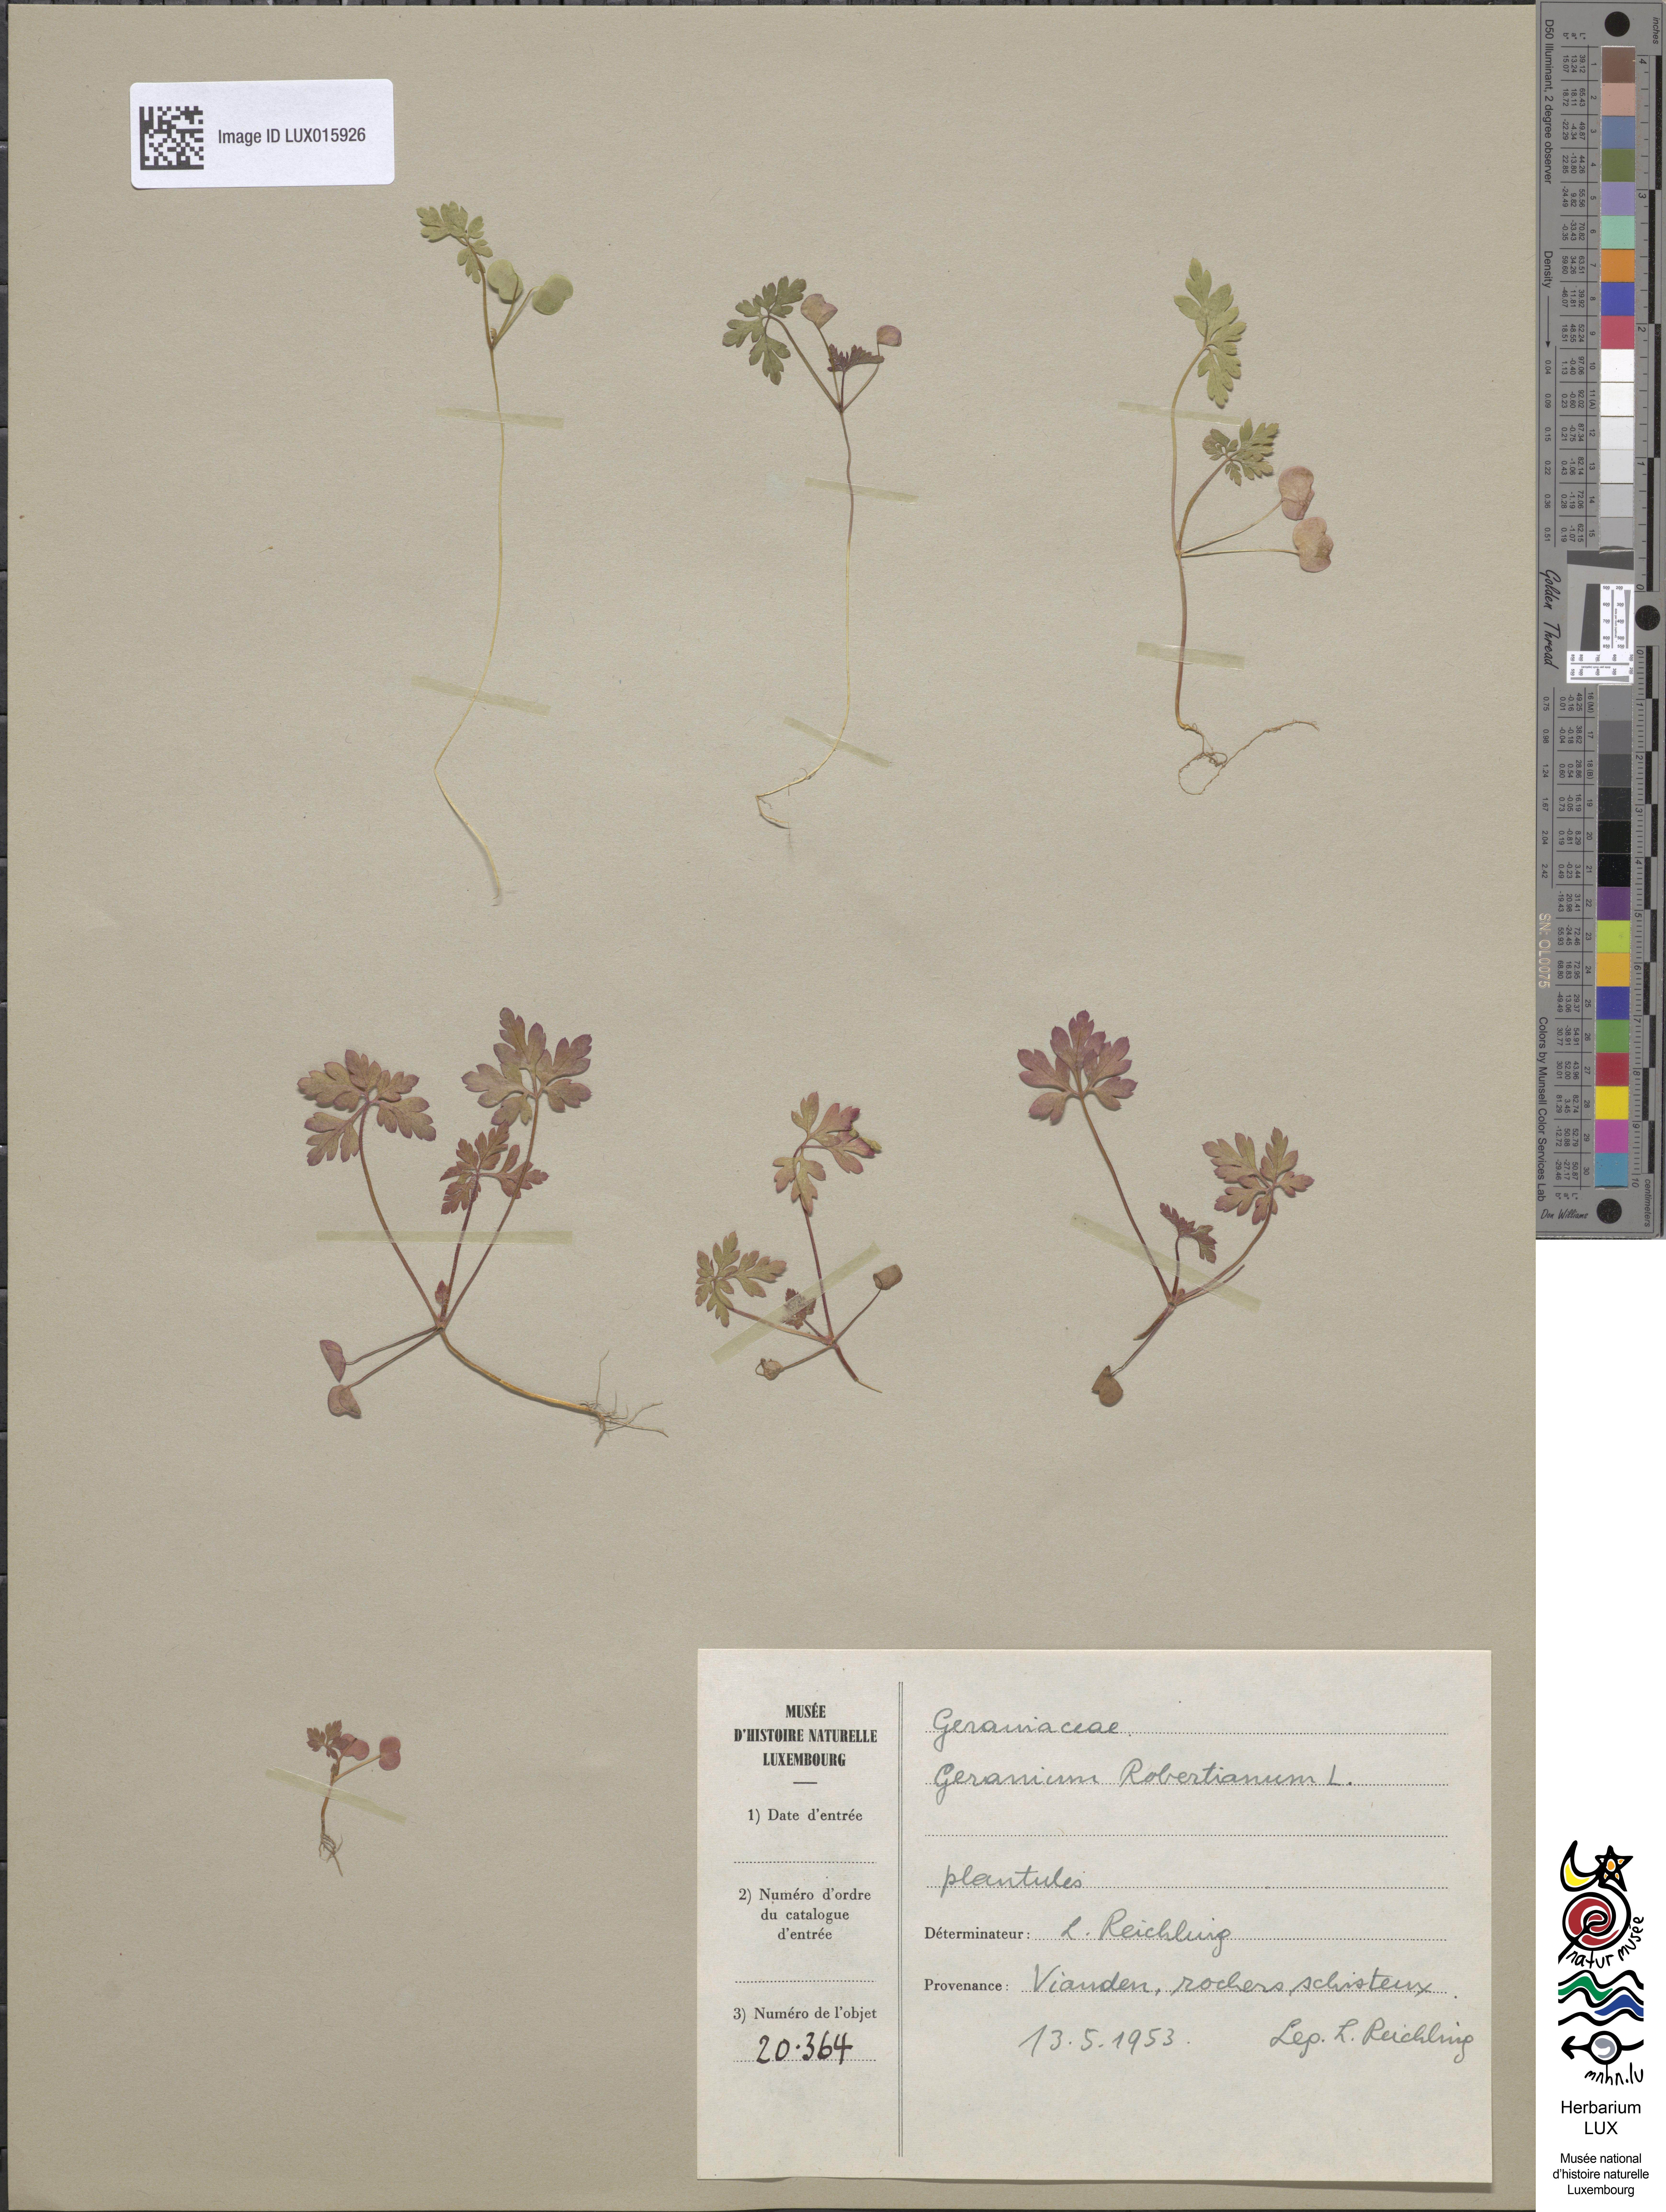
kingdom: Plantae
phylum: Tracheophyta
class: Magnoliopsida
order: Geraniales
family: Geraniaceae
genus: Geranium
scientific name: Geranium robertianum
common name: Herb-robert
